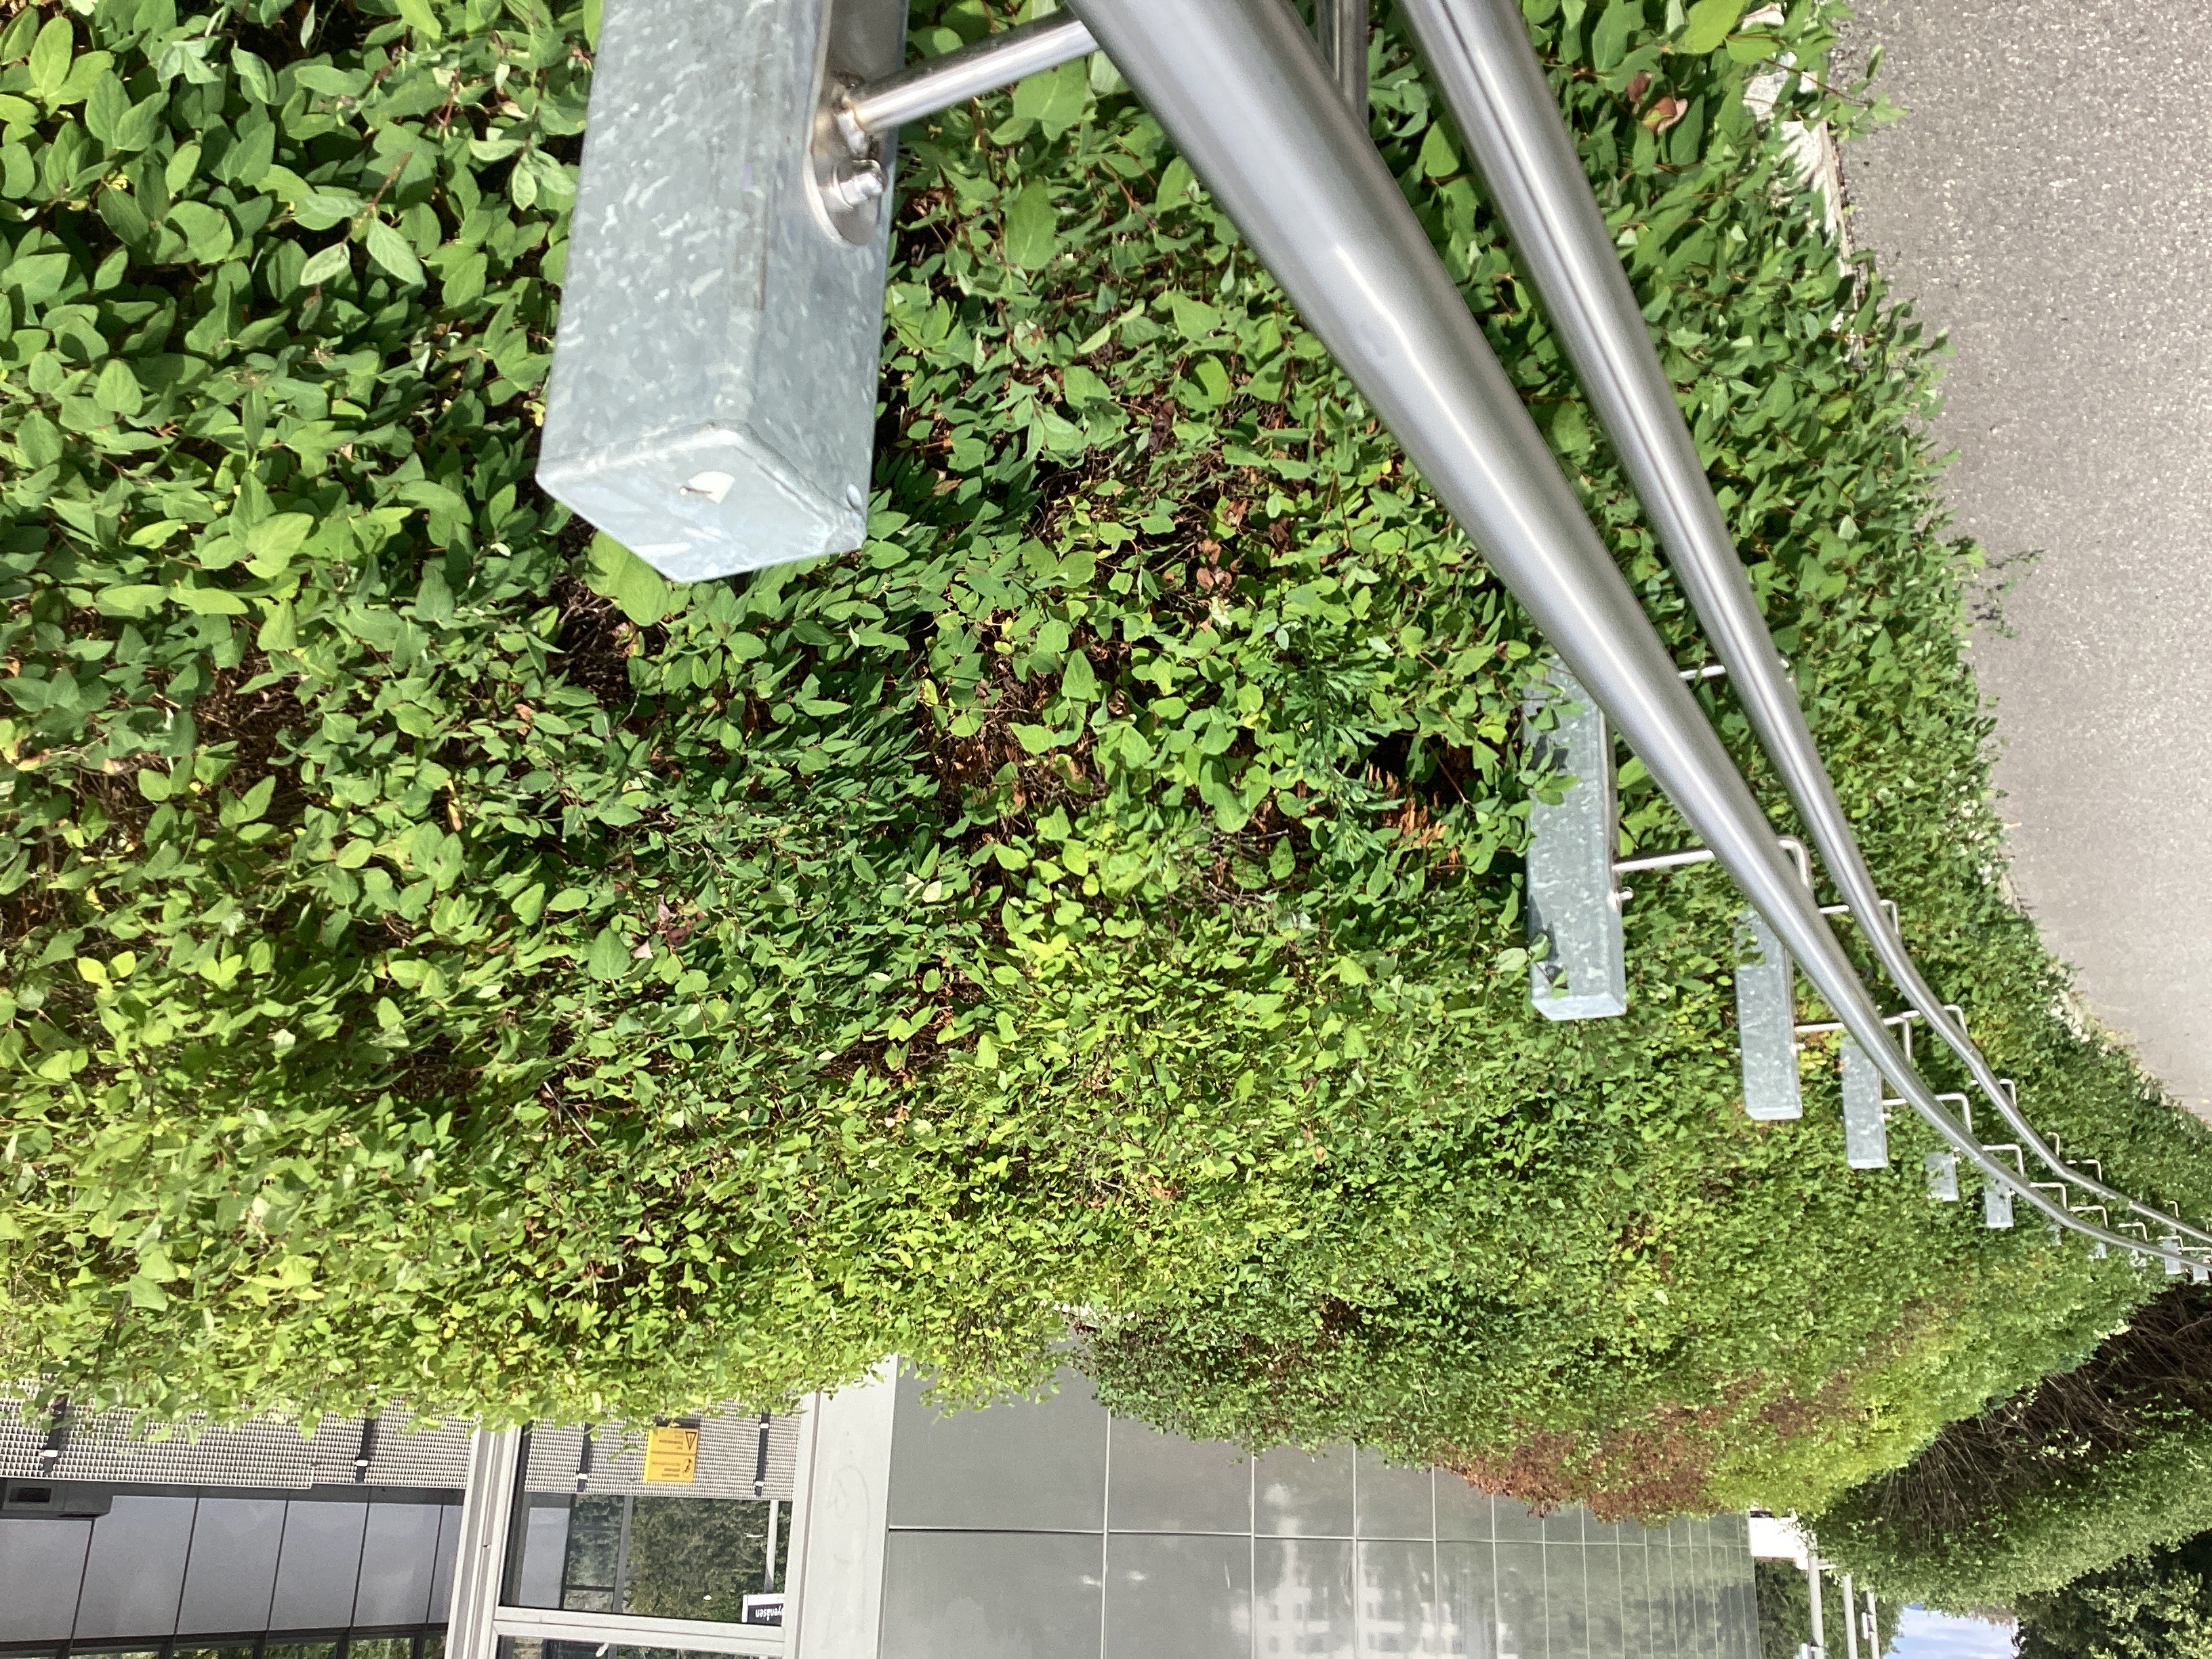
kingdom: Plantae
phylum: Tracheophyta
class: Magnoliopsida
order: Dipsacales
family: Caprifoliaceae
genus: Symphoricarpos
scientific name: Symphoricarpos albus
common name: snøbær
